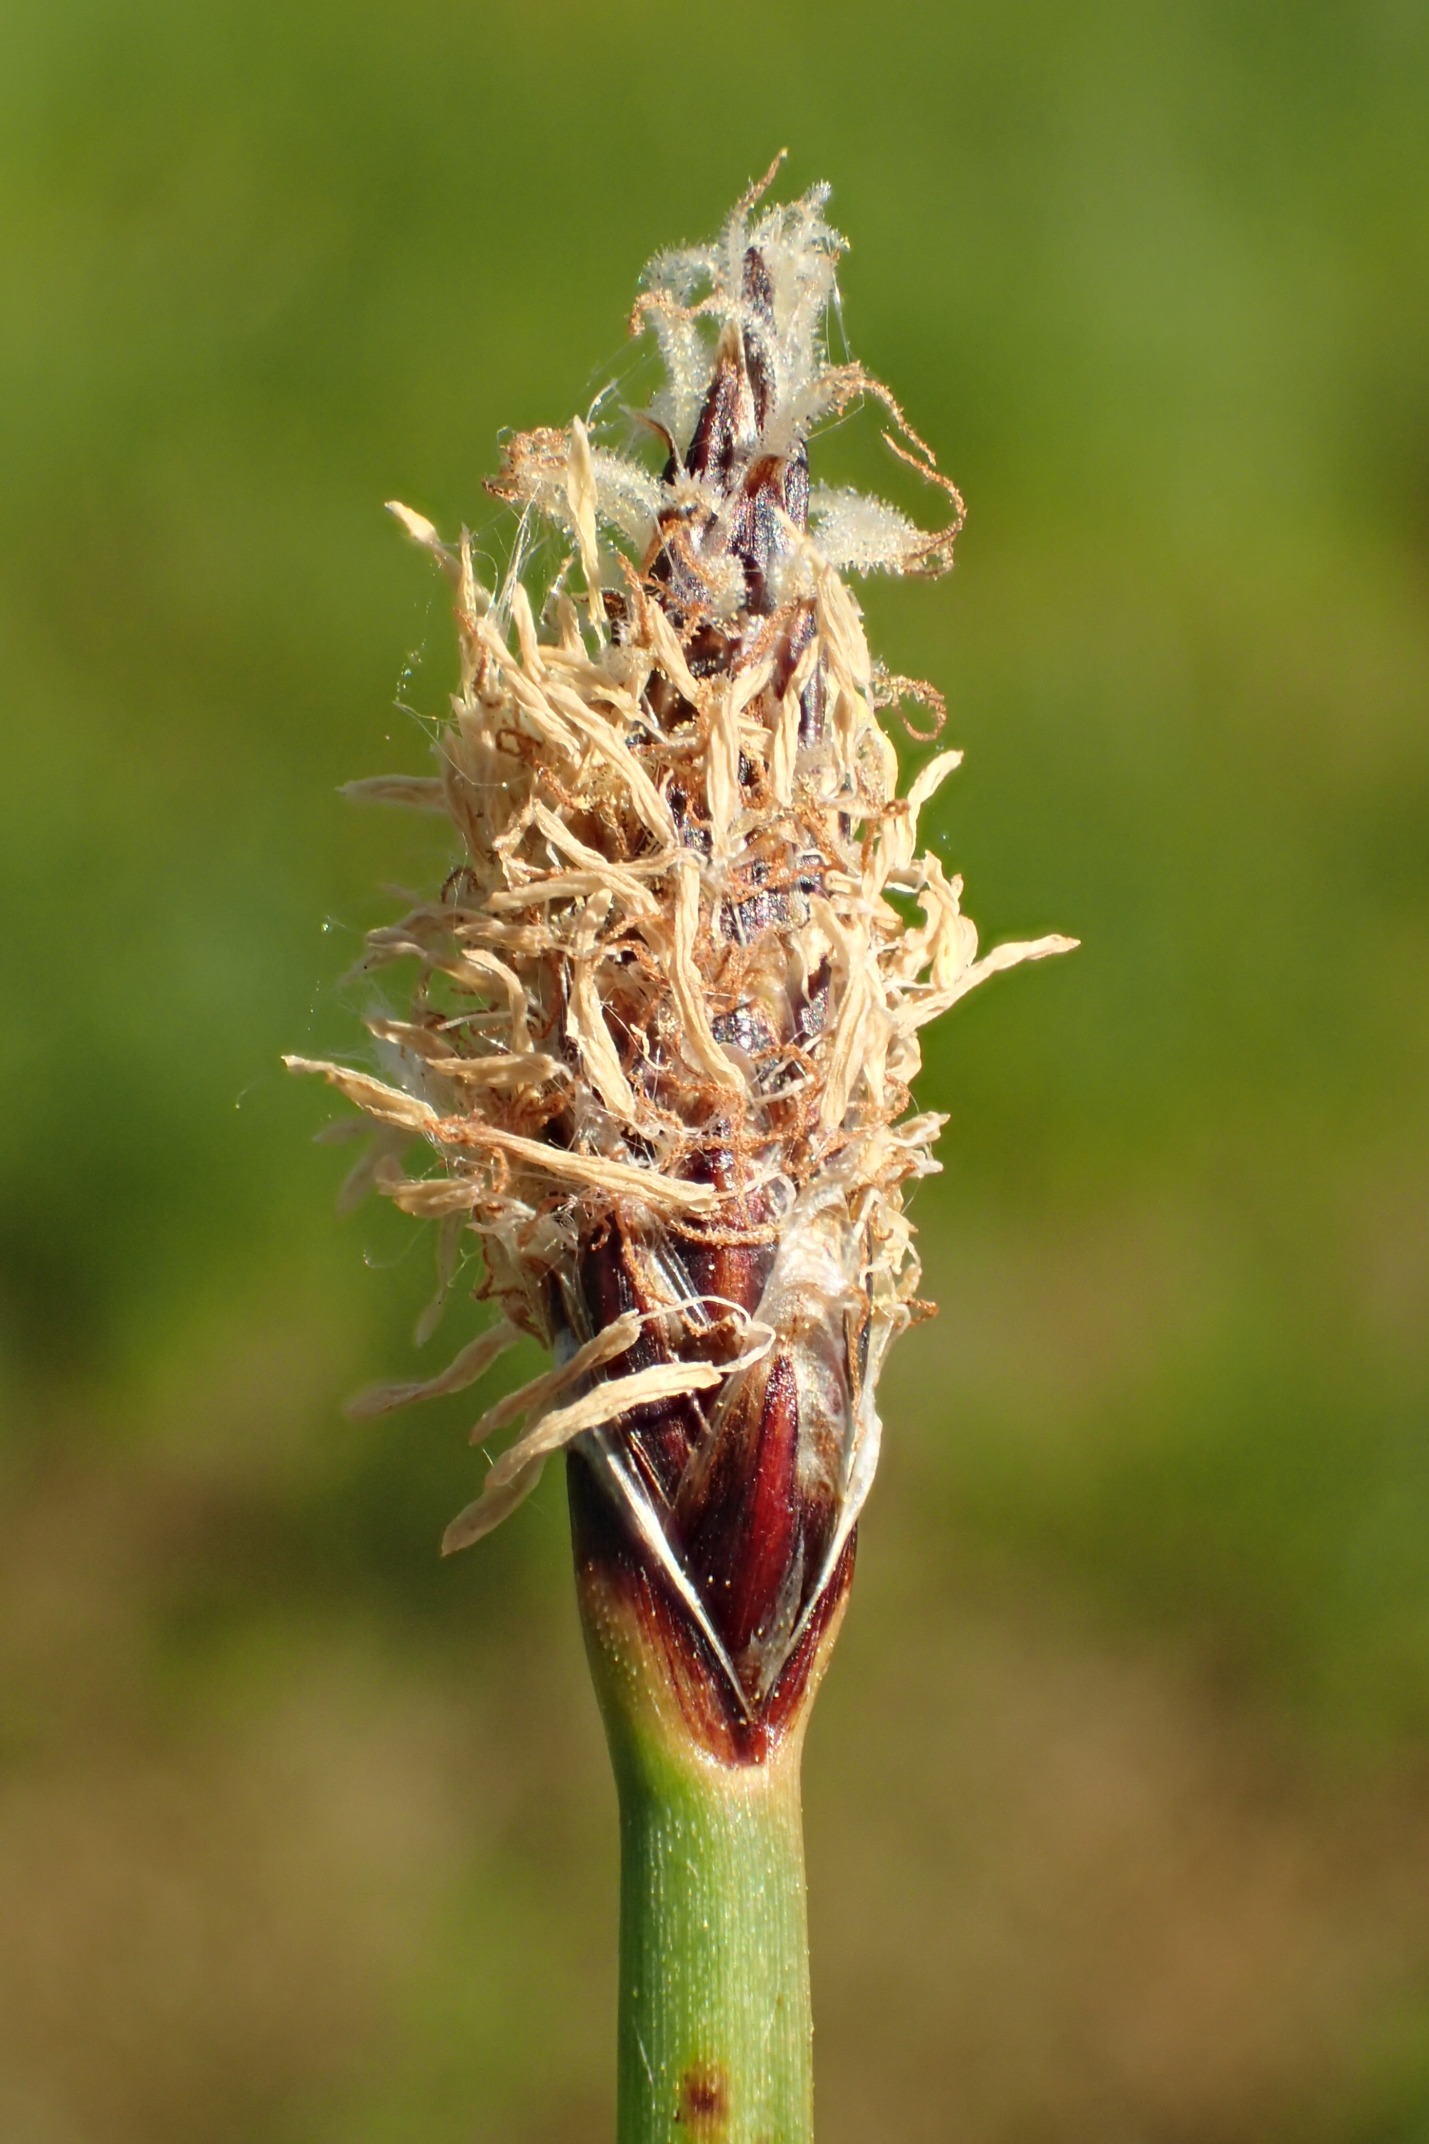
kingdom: Plantae
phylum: Tracheophyta
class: Liliopsida
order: Poales
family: Cyperaceae
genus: Eleocharis
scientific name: Eleocharis palustris
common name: Glat sumpstrå
